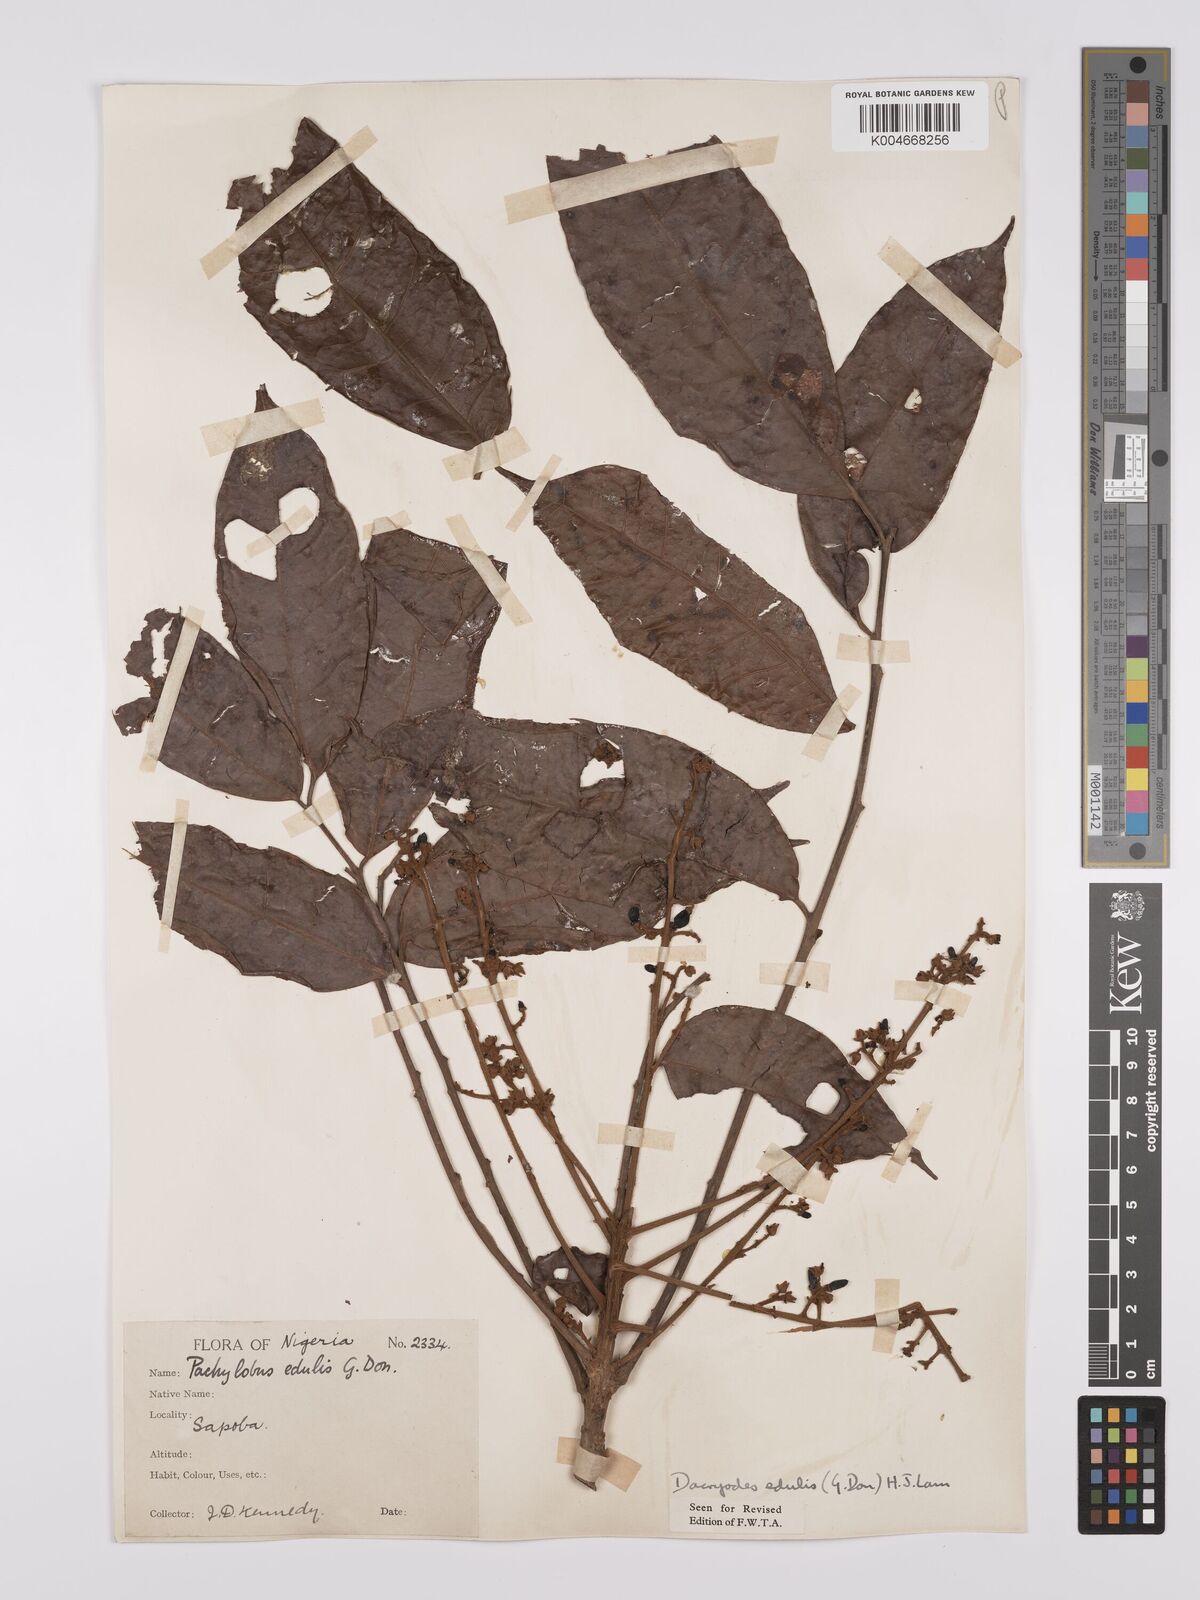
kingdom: Plantae
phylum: Tracheophyta
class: Magnoliopsida
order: Sapindales
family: Burseraceae
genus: Pachylobus
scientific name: Pachylobus edulis
